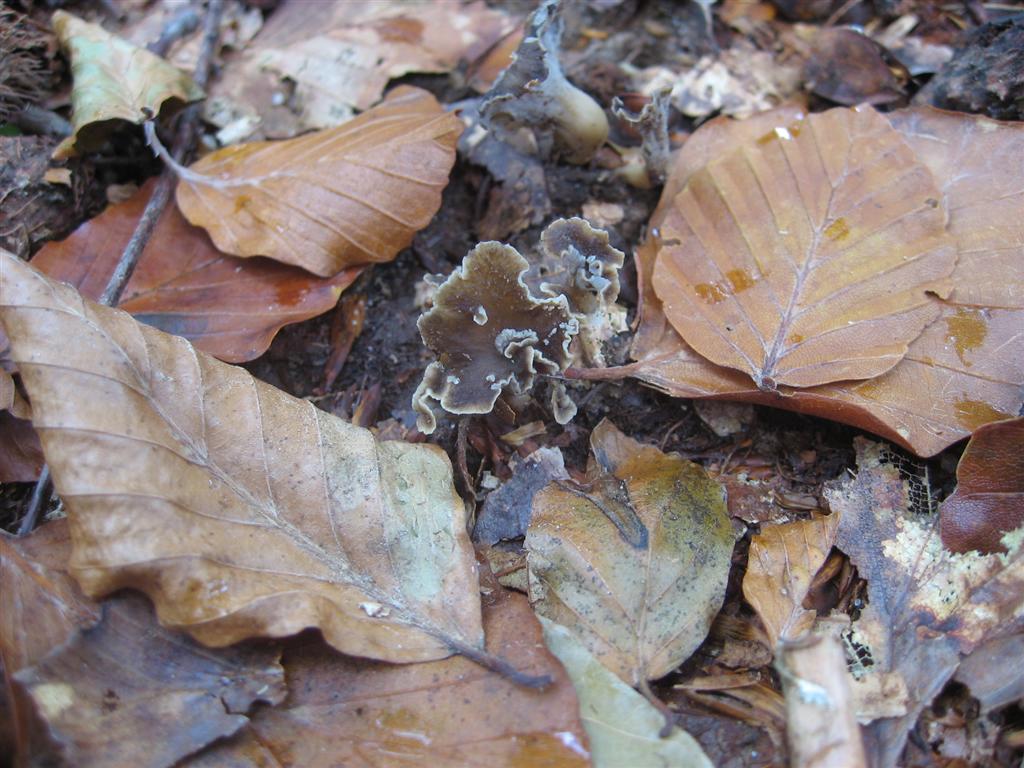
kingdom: Fungi
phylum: Basidiomycota
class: Agaricomycetes
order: Cantharellales
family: Hydnaceae
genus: Craterellus
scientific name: Craterellus undulatus
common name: liden kantarel
